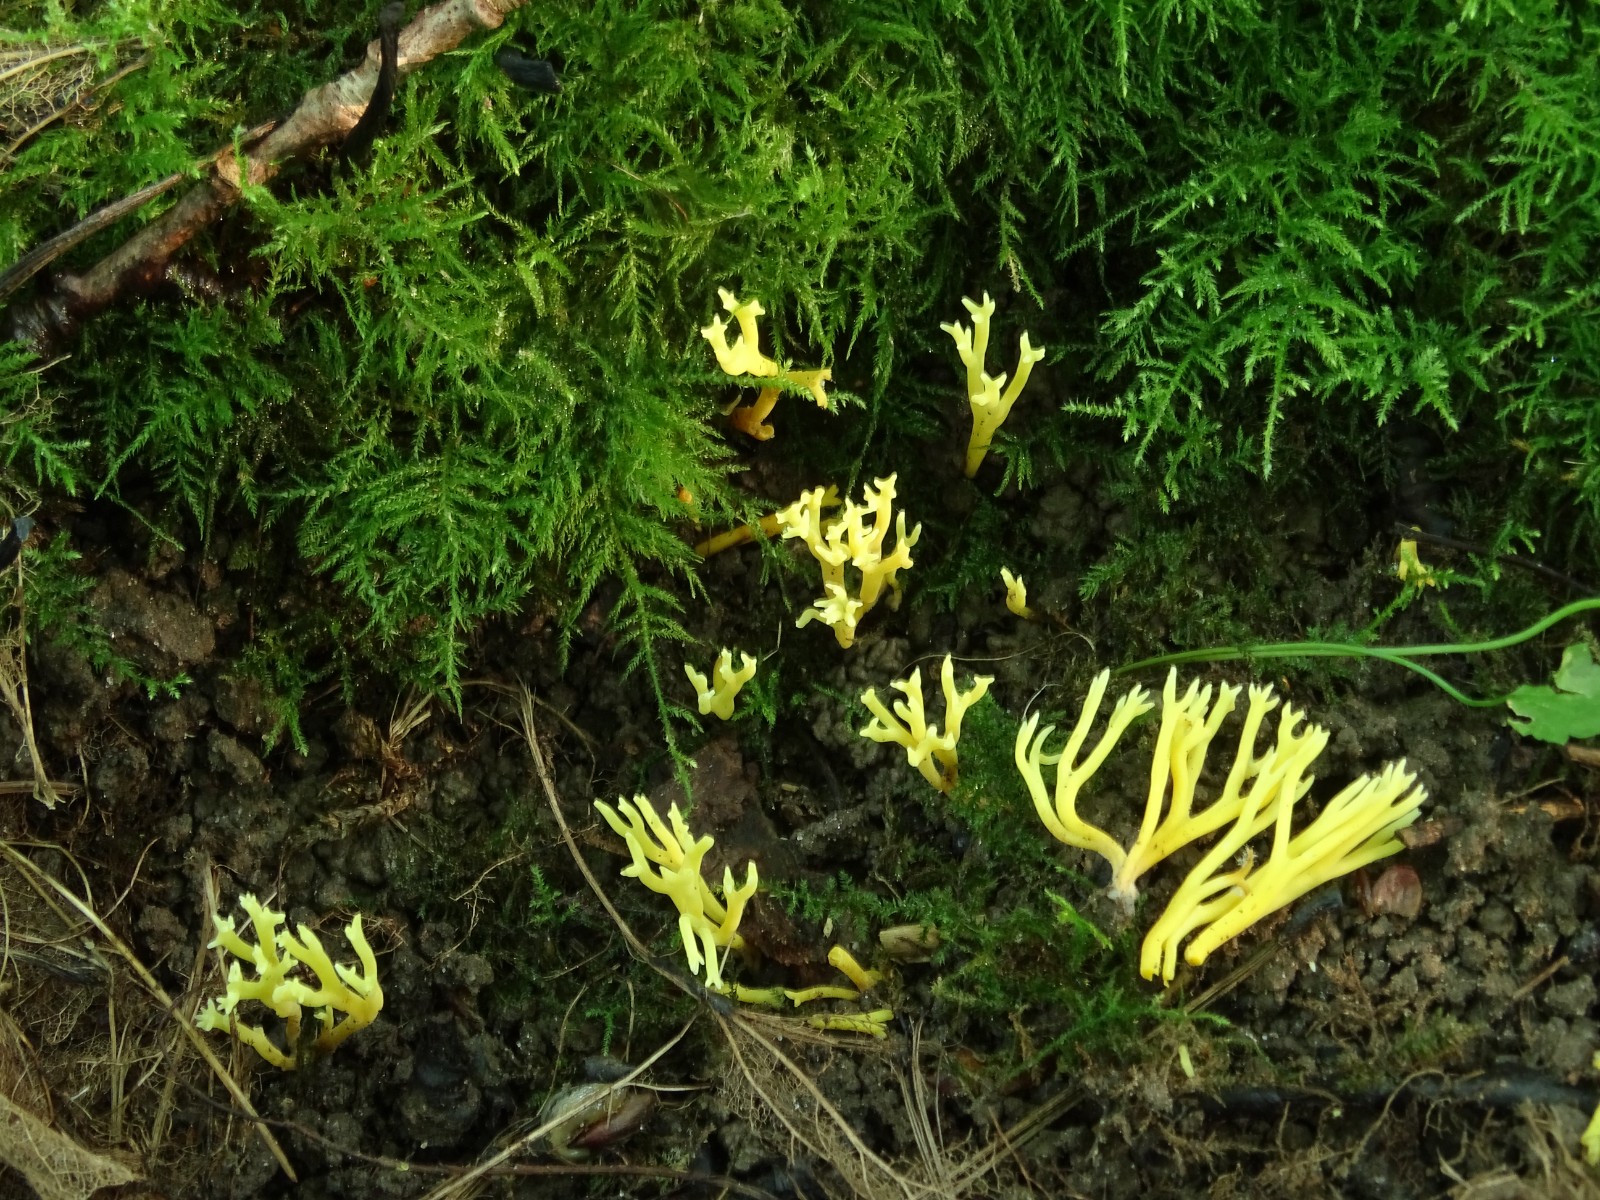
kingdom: Fungi
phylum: Basidiomycota
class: Agaricomycetes
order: Agaricales
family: Clavariaceae
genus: Clavulinopsis
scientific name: Clavulinopsis corniculata
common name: eng-køllesvamp
